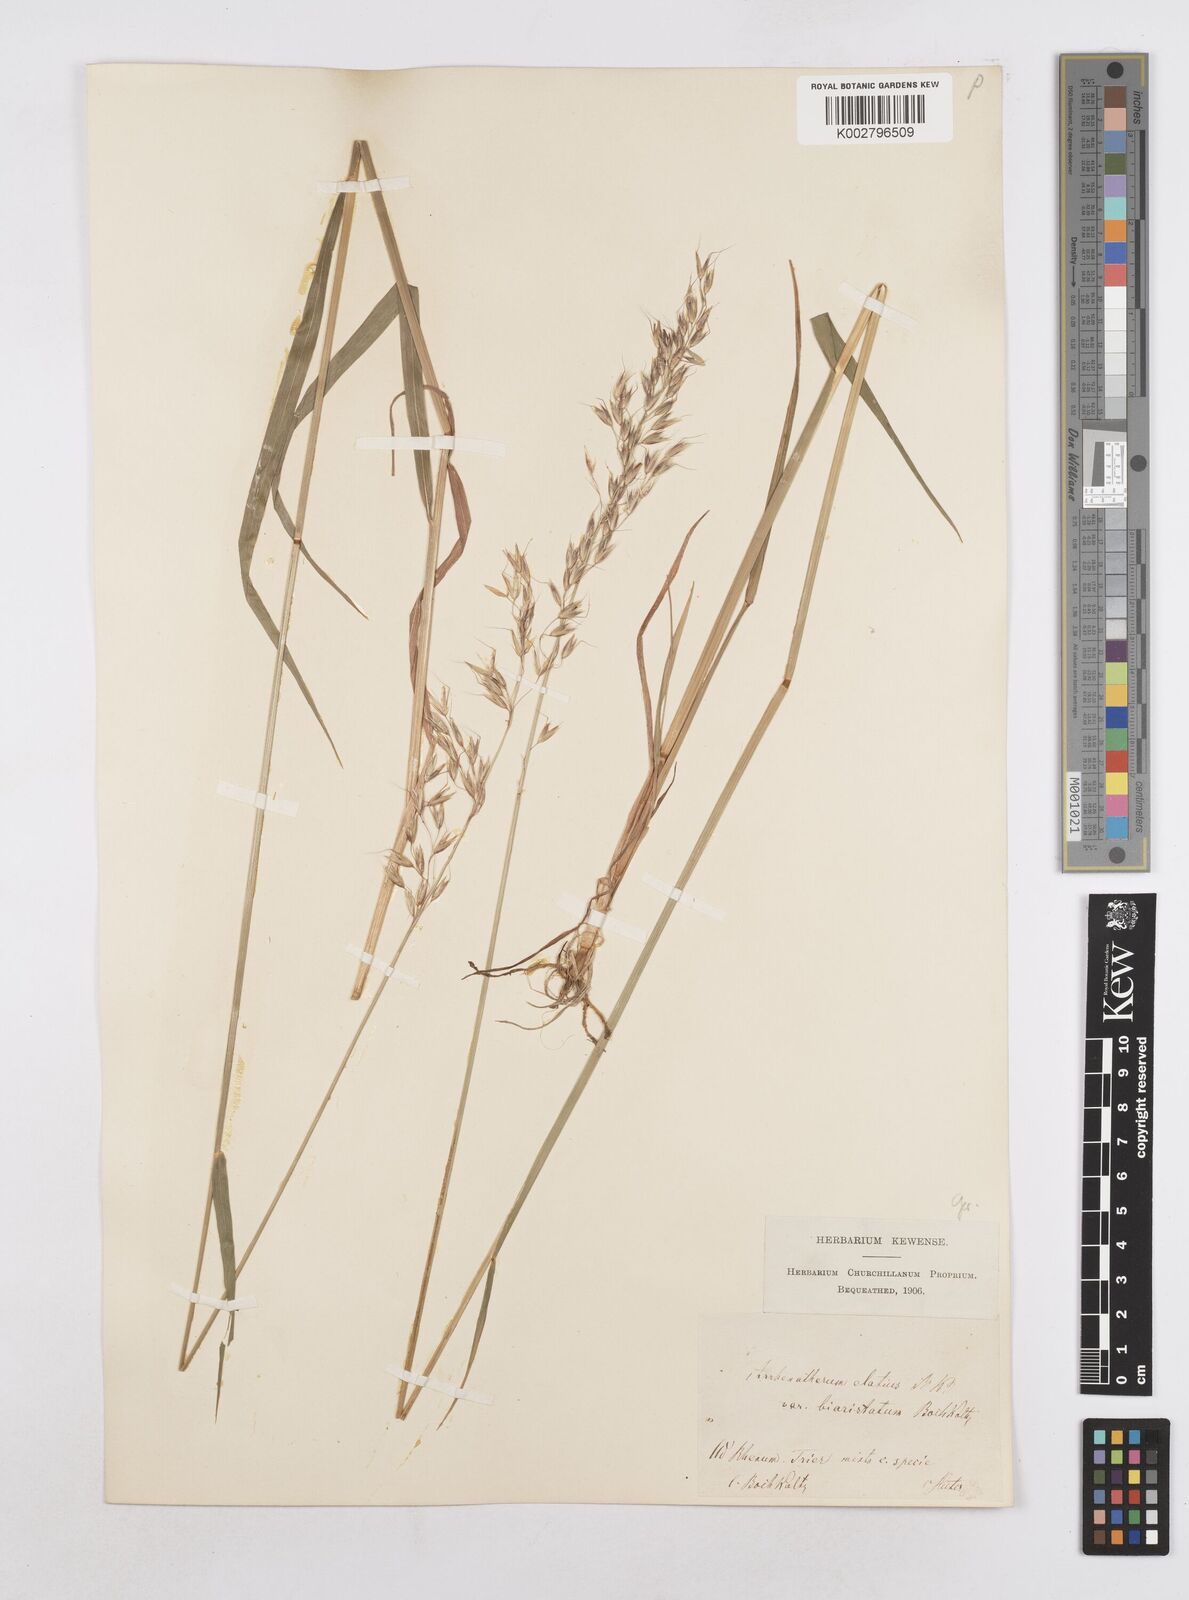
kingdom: Plantae
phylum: Tracheophyta
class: Liliopsida
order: Poales
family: Poaceae
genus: Arrhenatherum
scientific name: Arrhenatherum elatius
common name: Tall oatgrass
